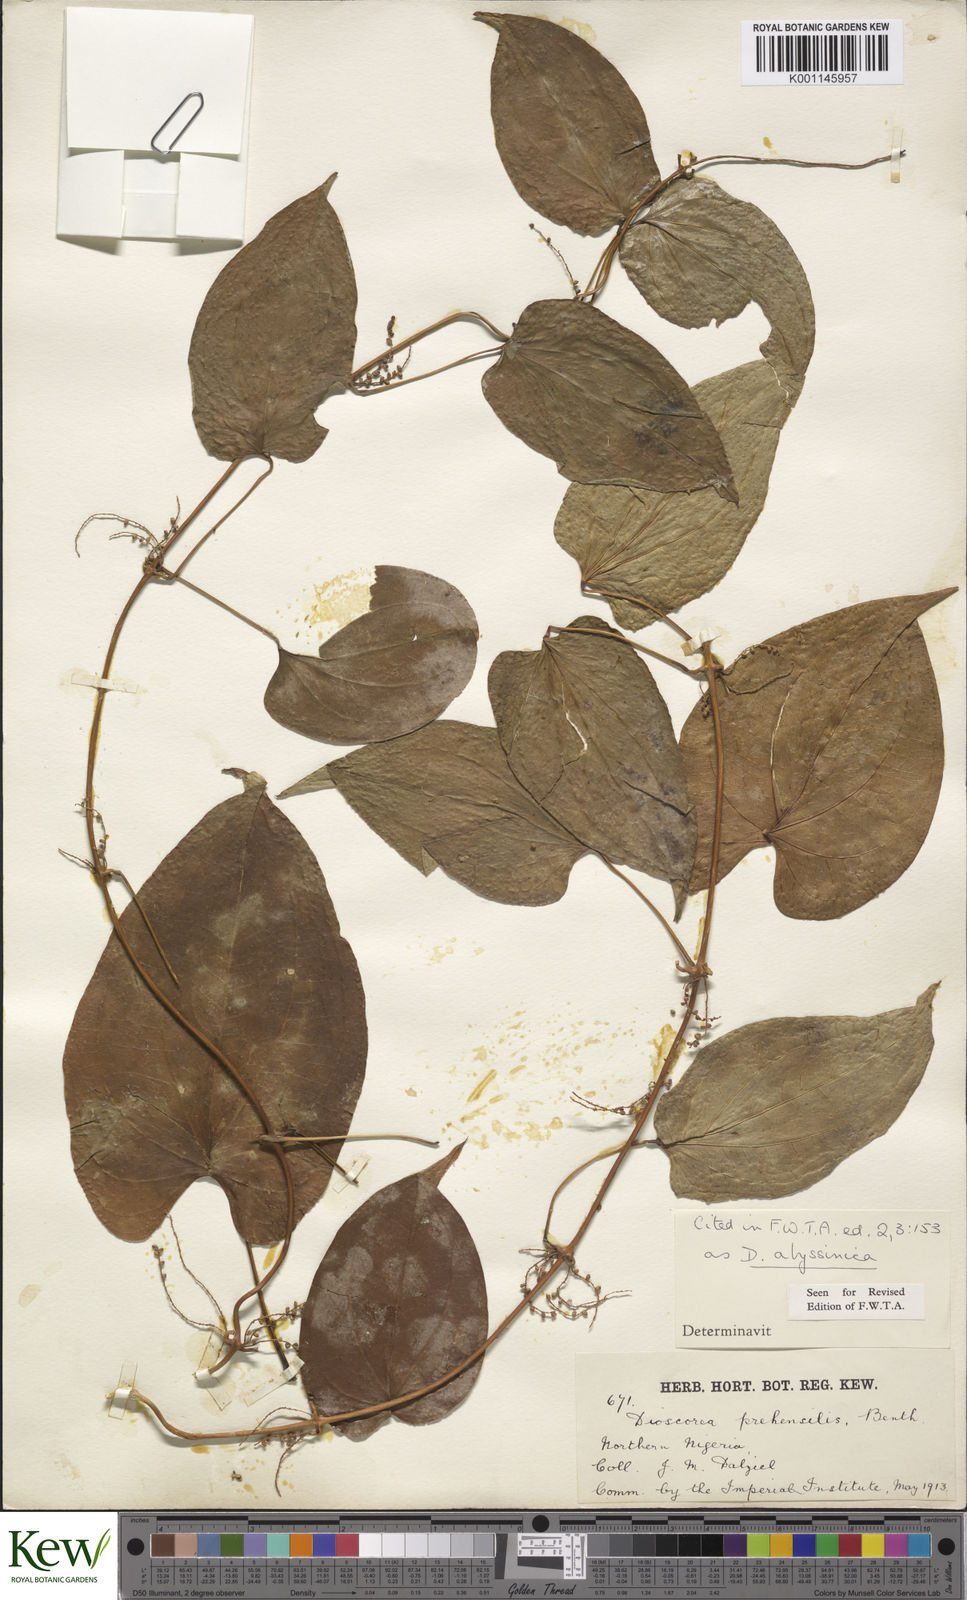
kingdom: Plantae
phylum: Tracheophyta
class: Liliopsida
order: Dioscoreales
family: Dioscoreaceae
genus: Dioscorea
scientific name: Dioscorea praehensilis
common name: Bush yam
